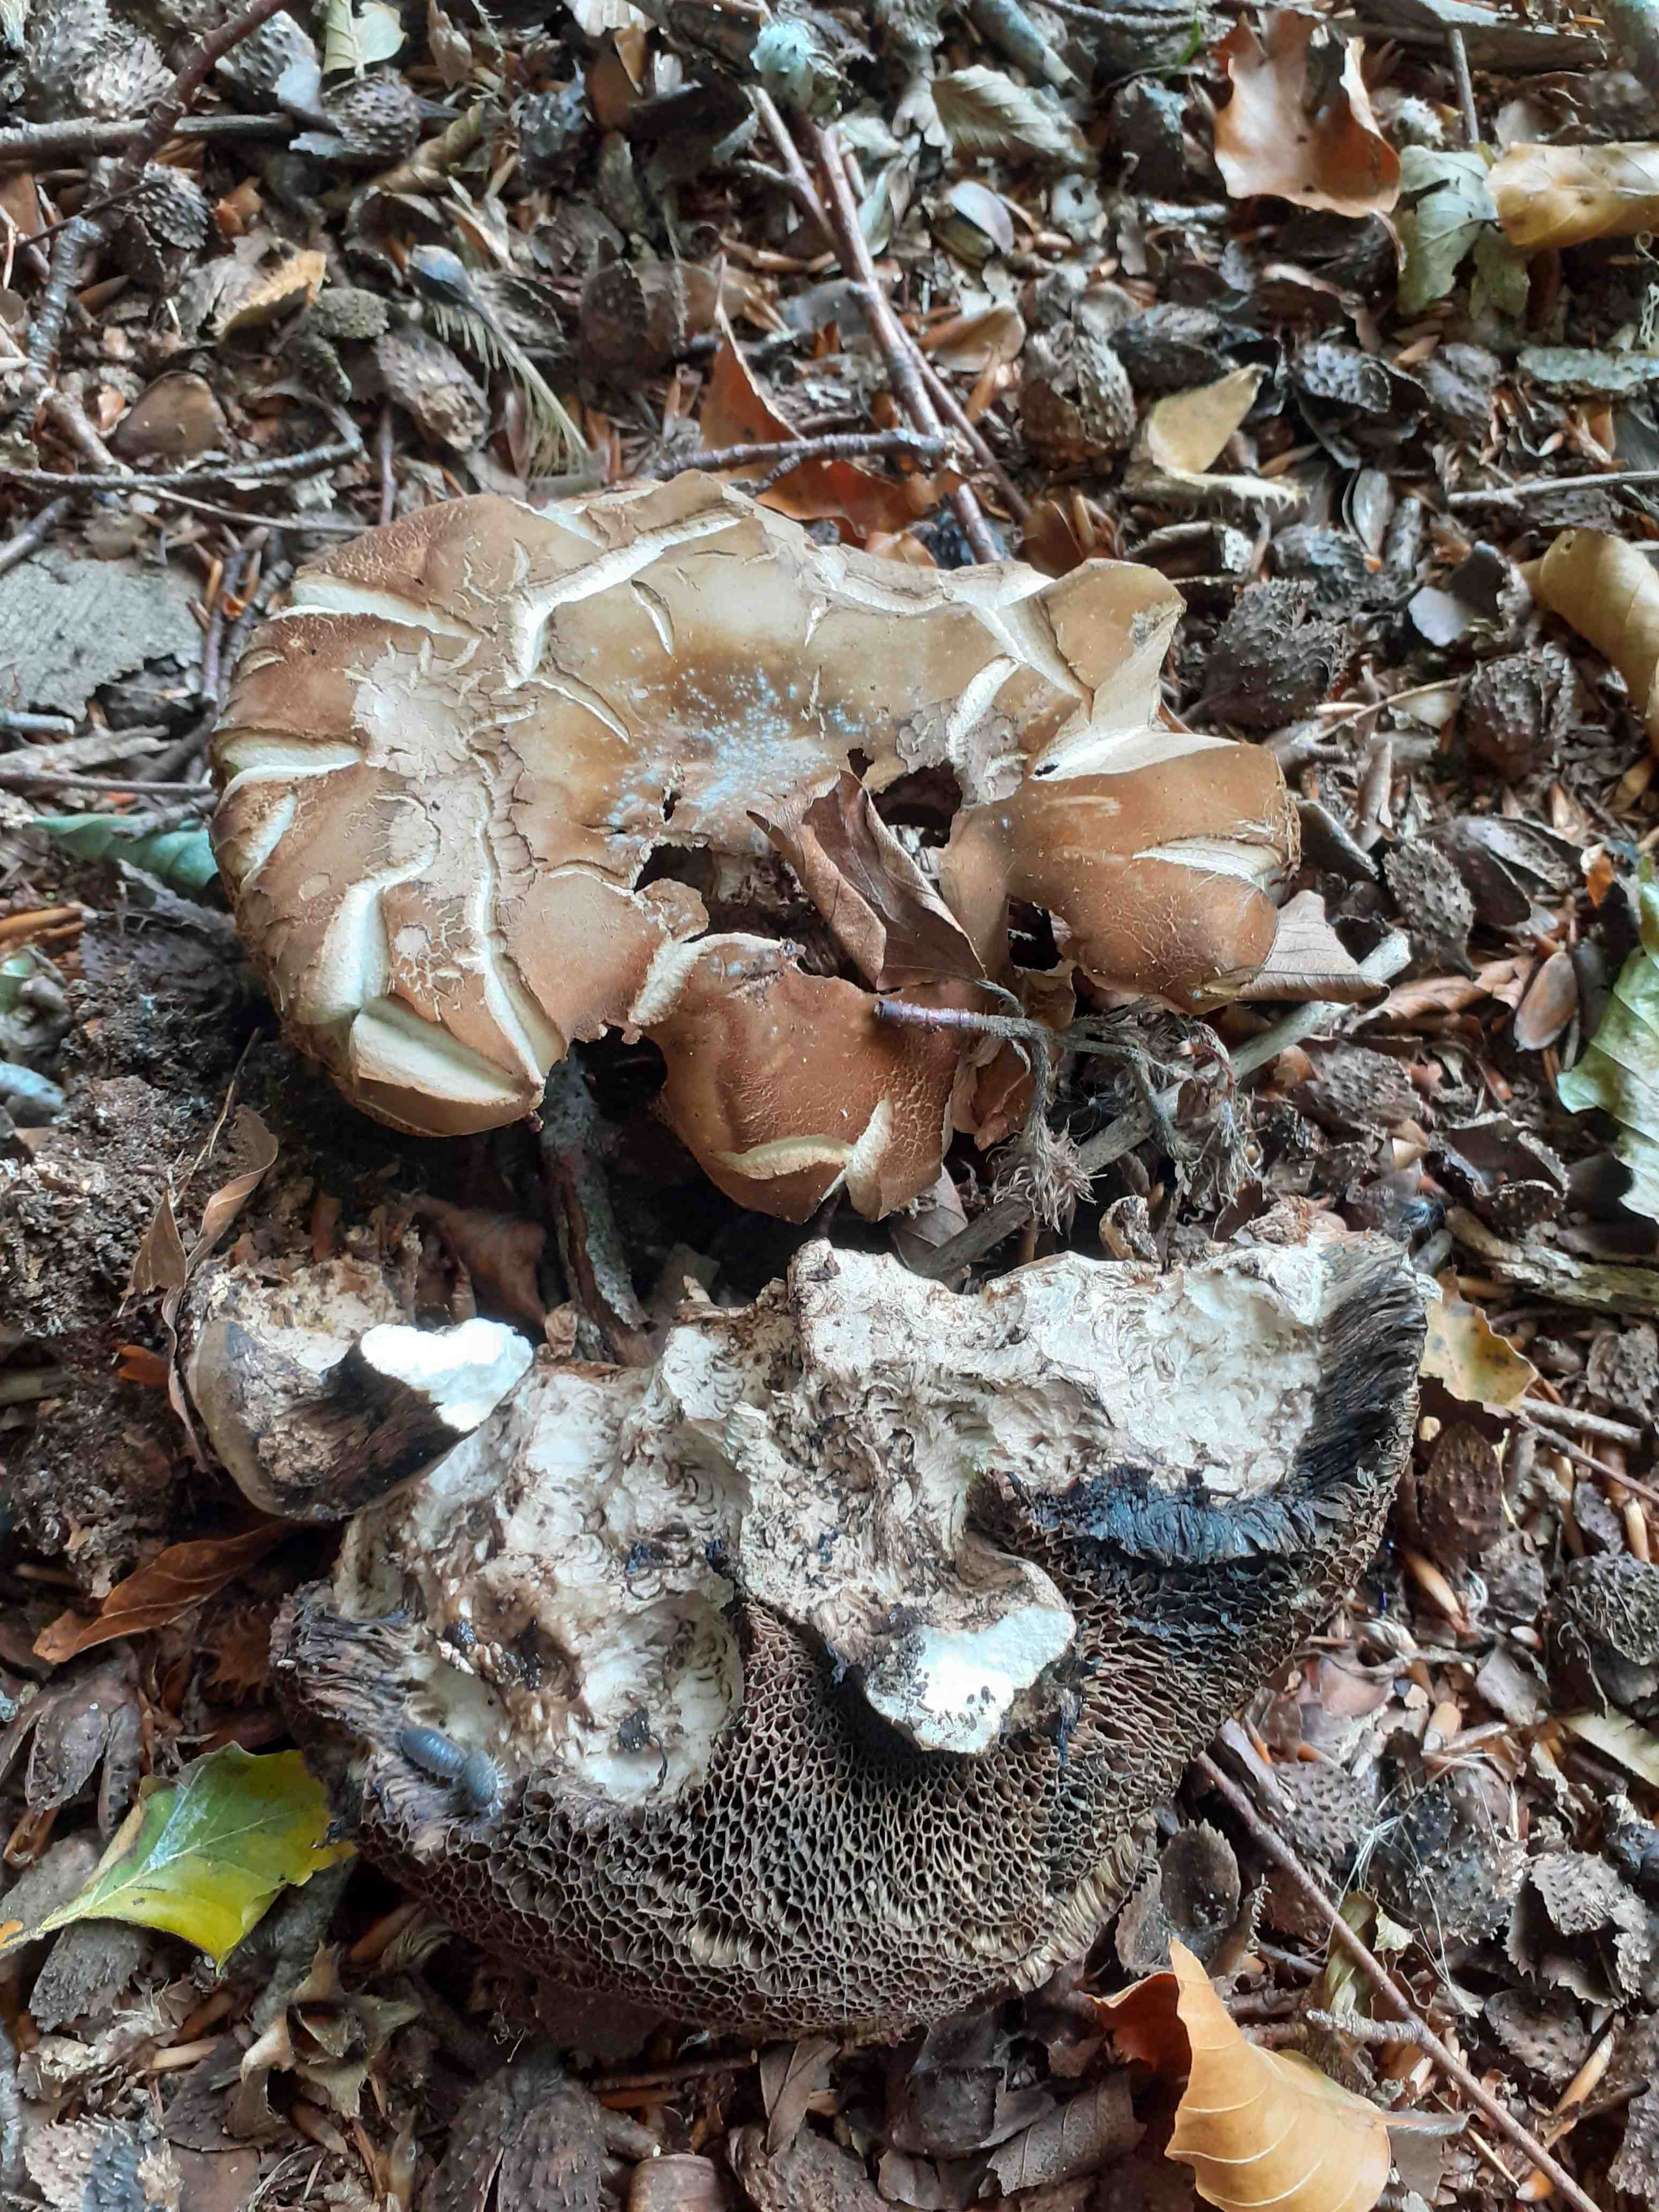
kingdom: Fungi
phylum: Basidiomycota
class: Agaricomycetes
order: Boletales
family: Boletaceae
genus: Porphyrellus
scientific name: Porphyrellus porphyrosporus
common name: sodrørhat
